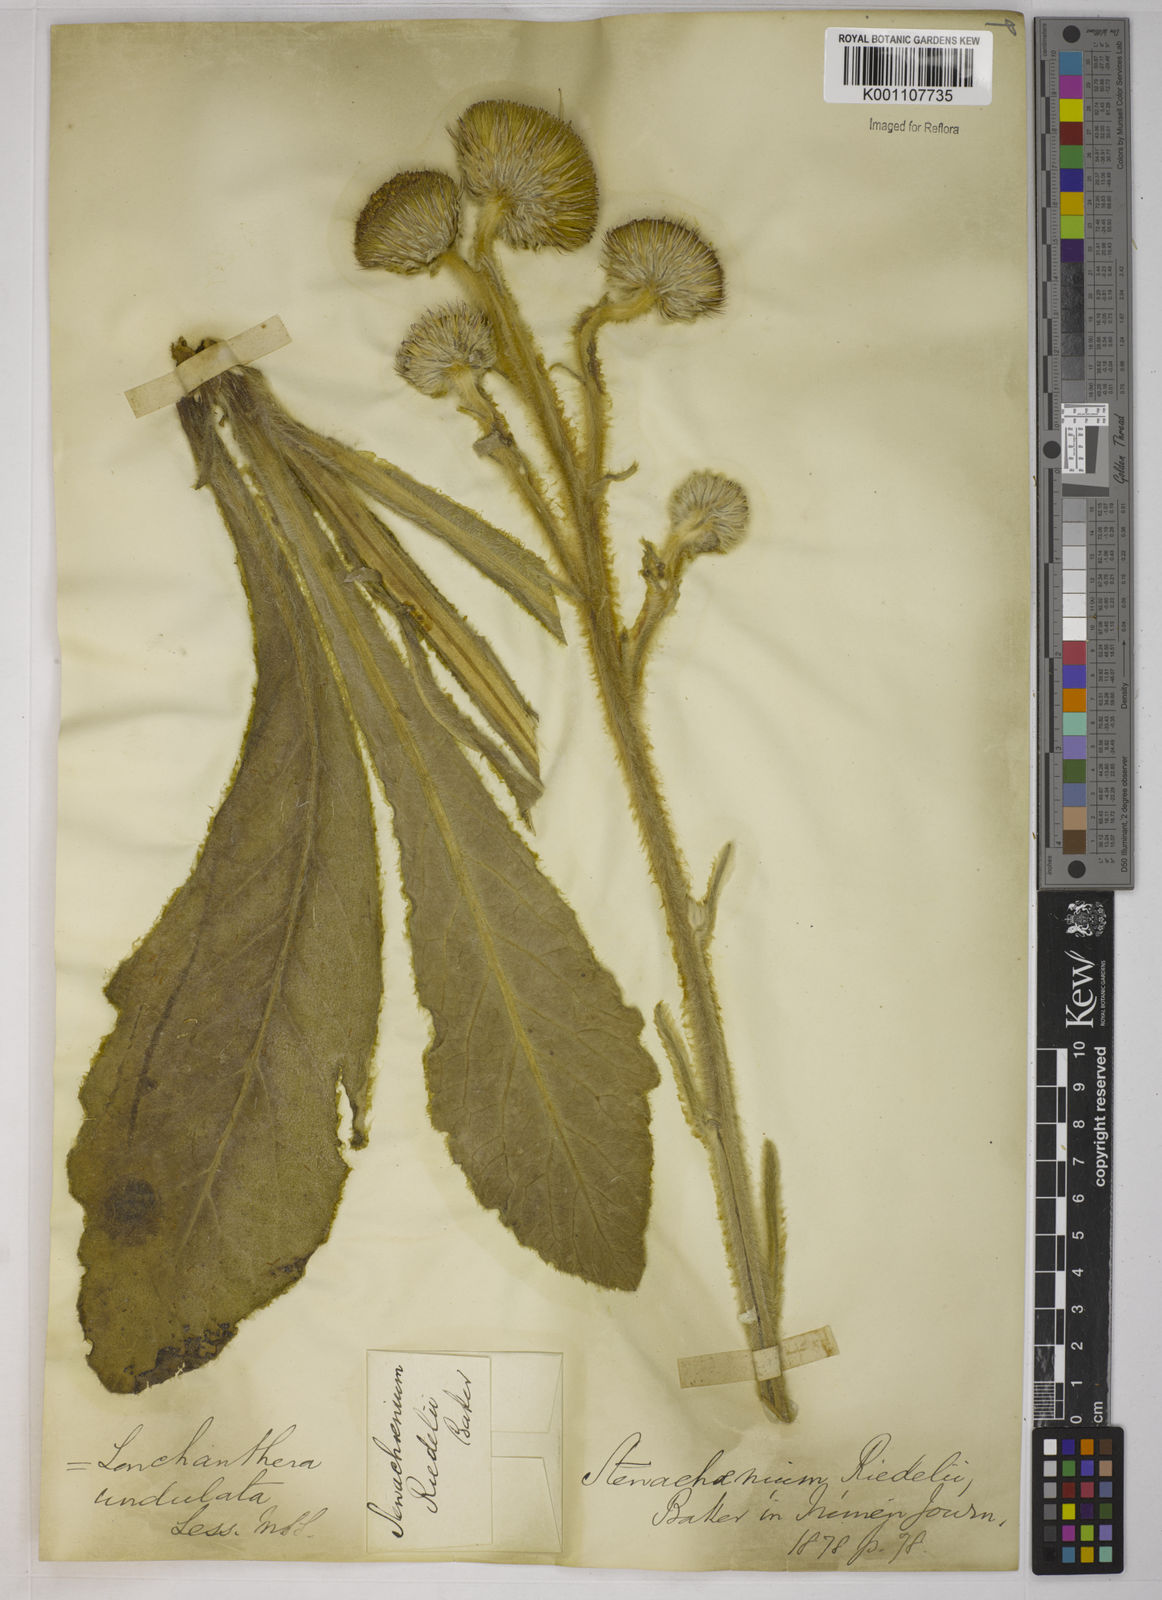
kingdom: Plantae
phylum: Tracheophyta
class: Magnoliopsida
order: Asterales
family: Asteraceae
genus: Stenachaenium
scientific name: Stenachaenium riedelii
